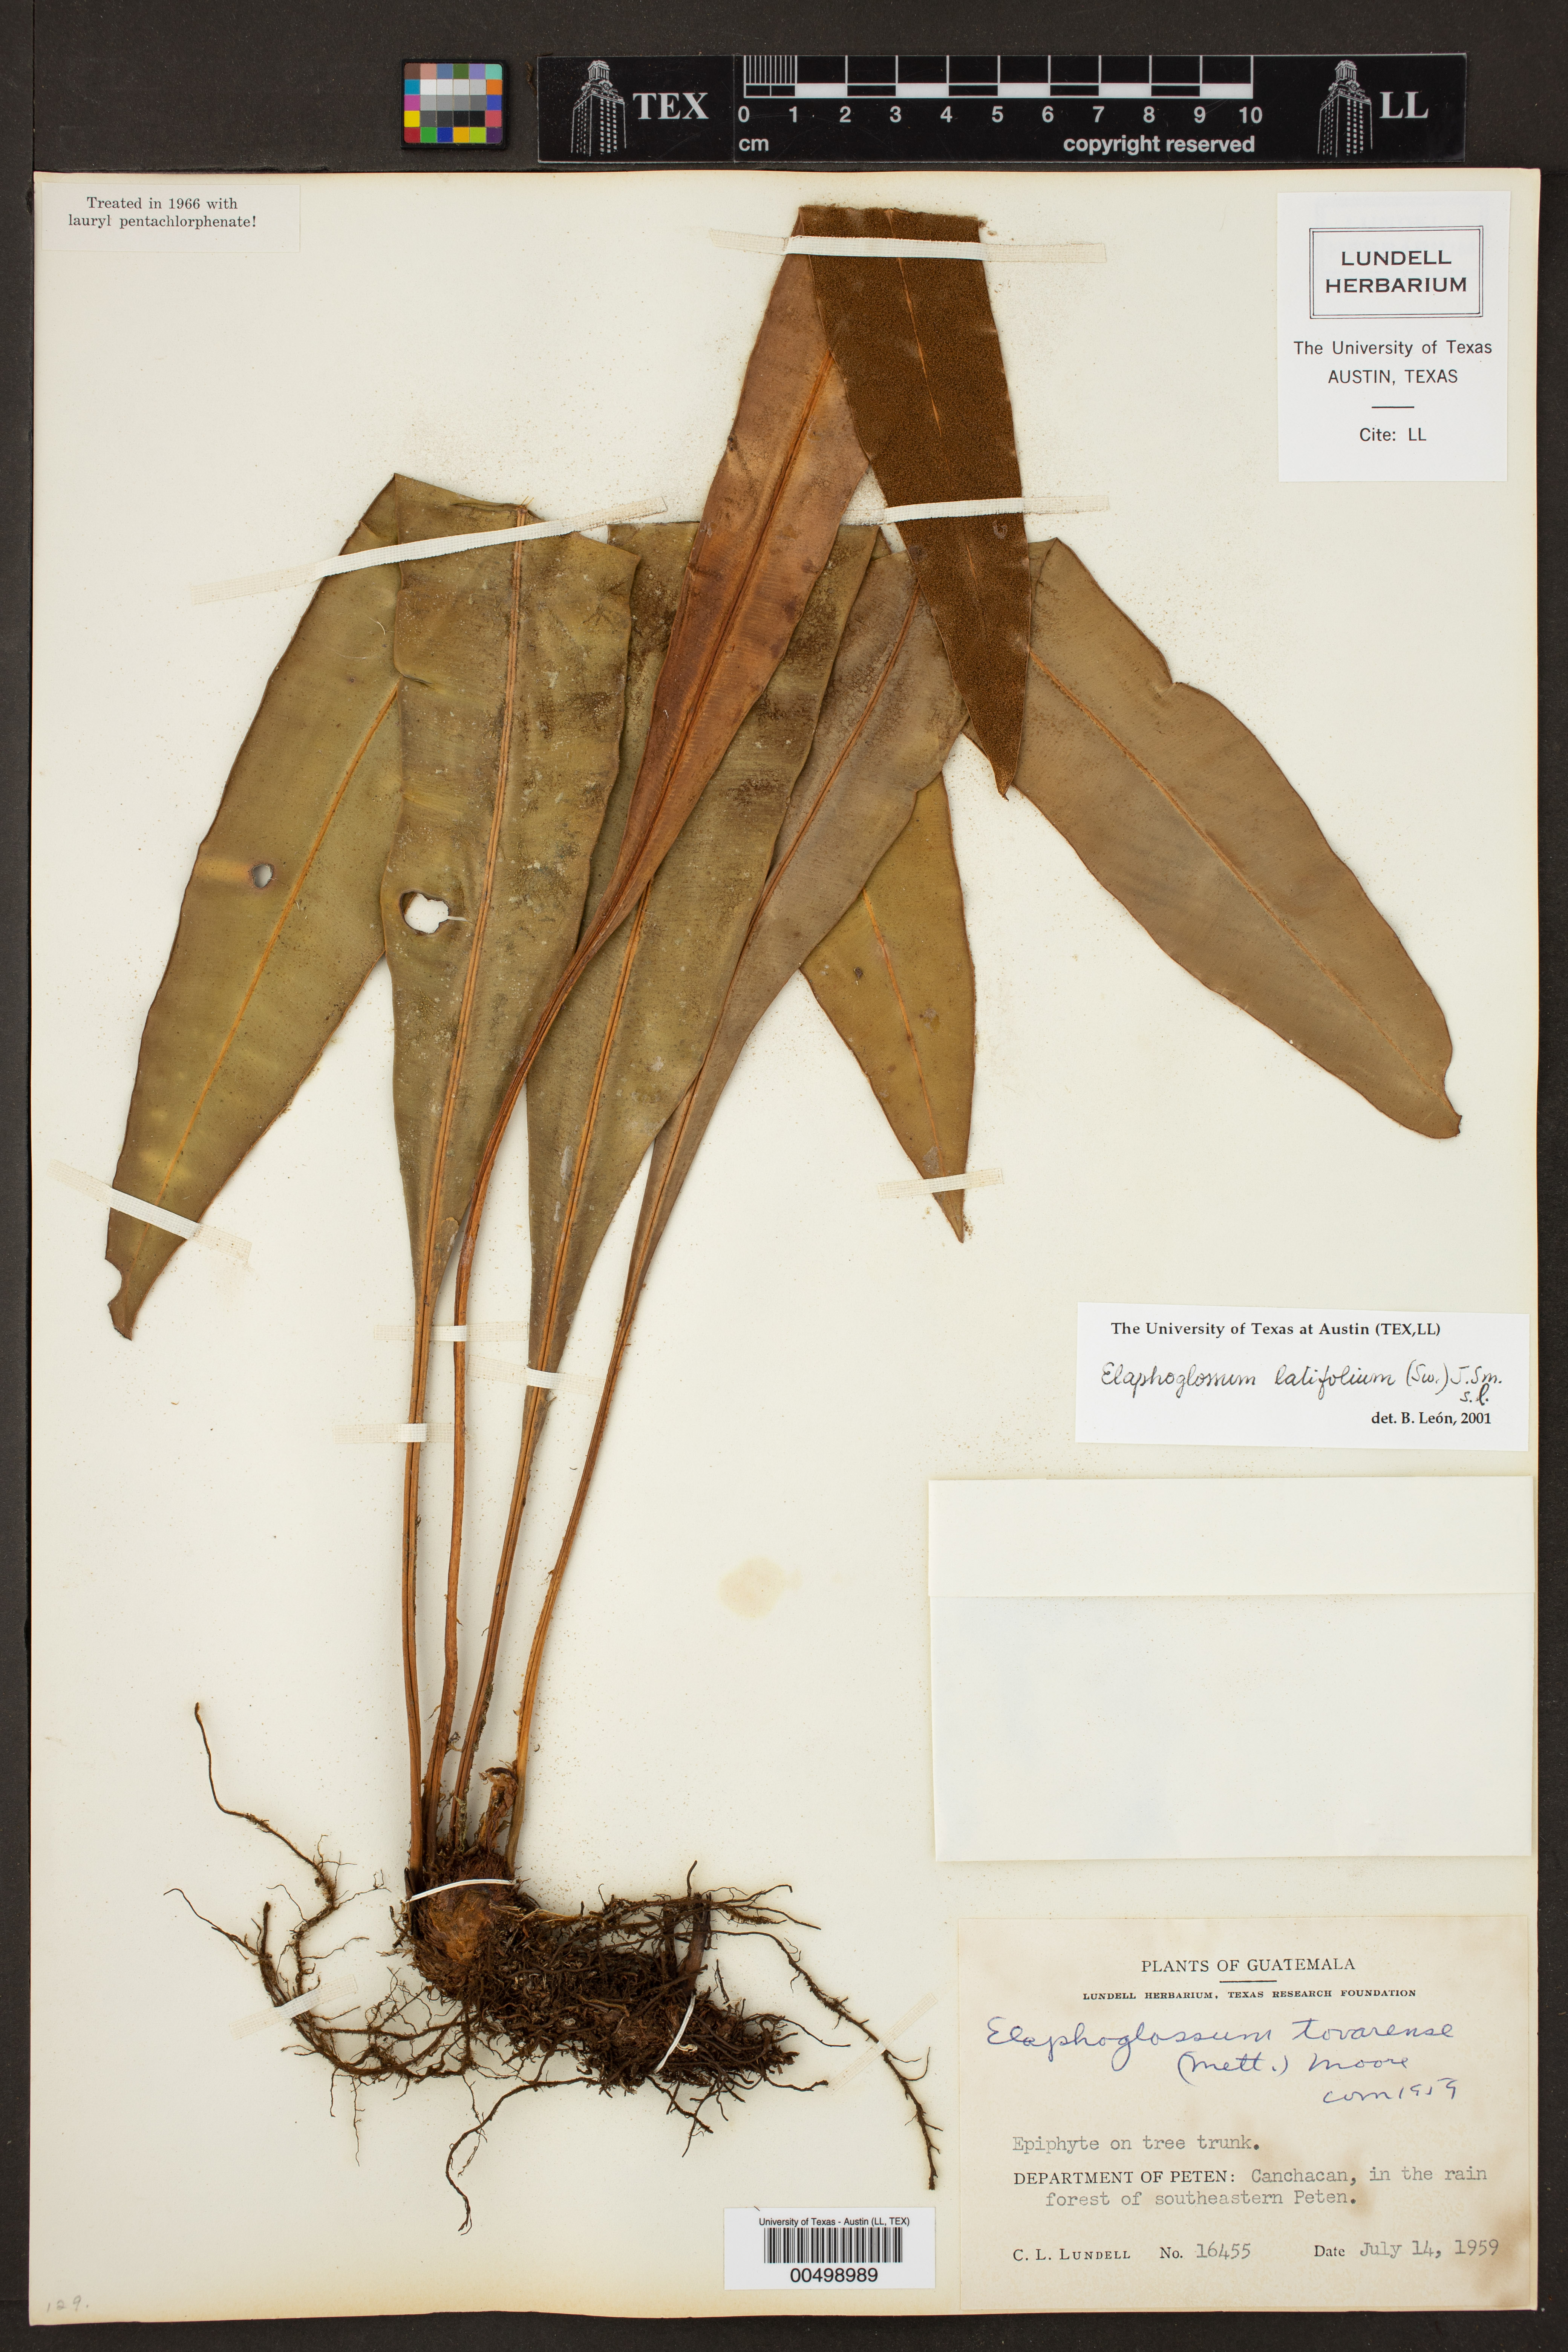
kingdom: Plantae
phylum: Tracheophyta
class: Polypodiopsida
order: Polypodiales
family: Dryopteridaceae
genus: Elaphoglossum
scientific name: Elaphoglossum latifolium
